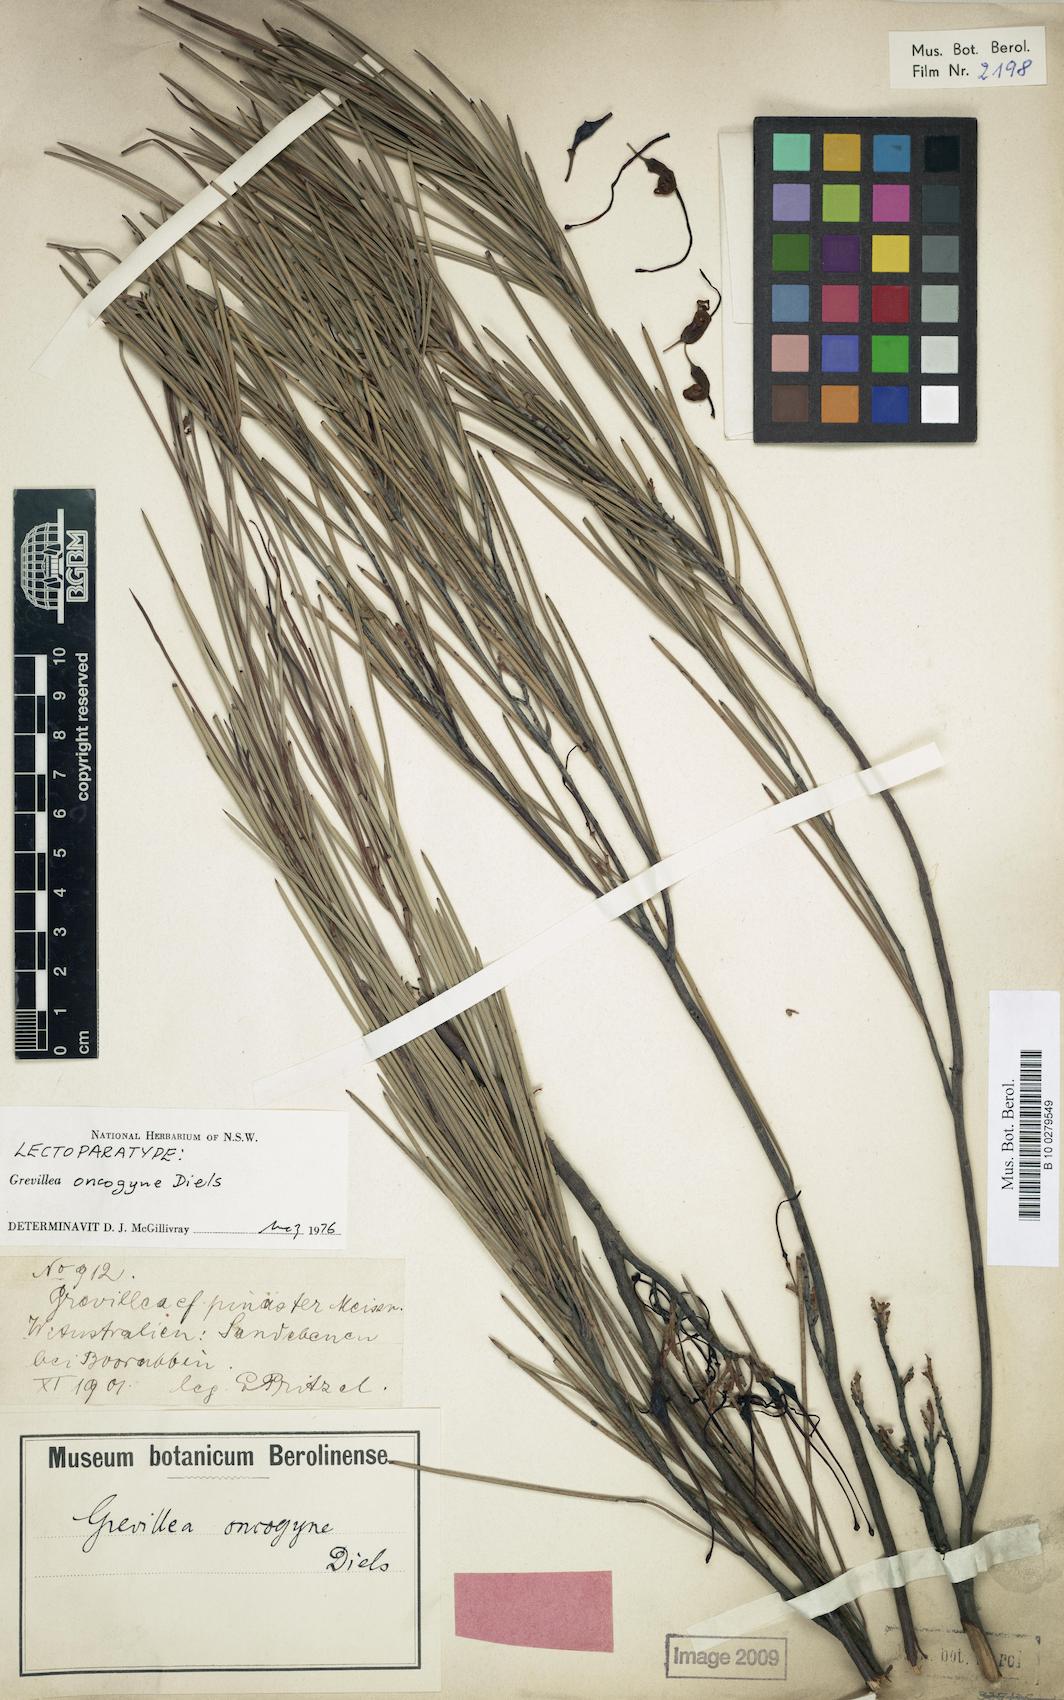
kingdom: Plantae
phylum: Tracheophyta
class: Magnoliopsida
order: Proteales
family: Proteaceae
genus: Grevillea
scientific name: Grevillea oncogyne
